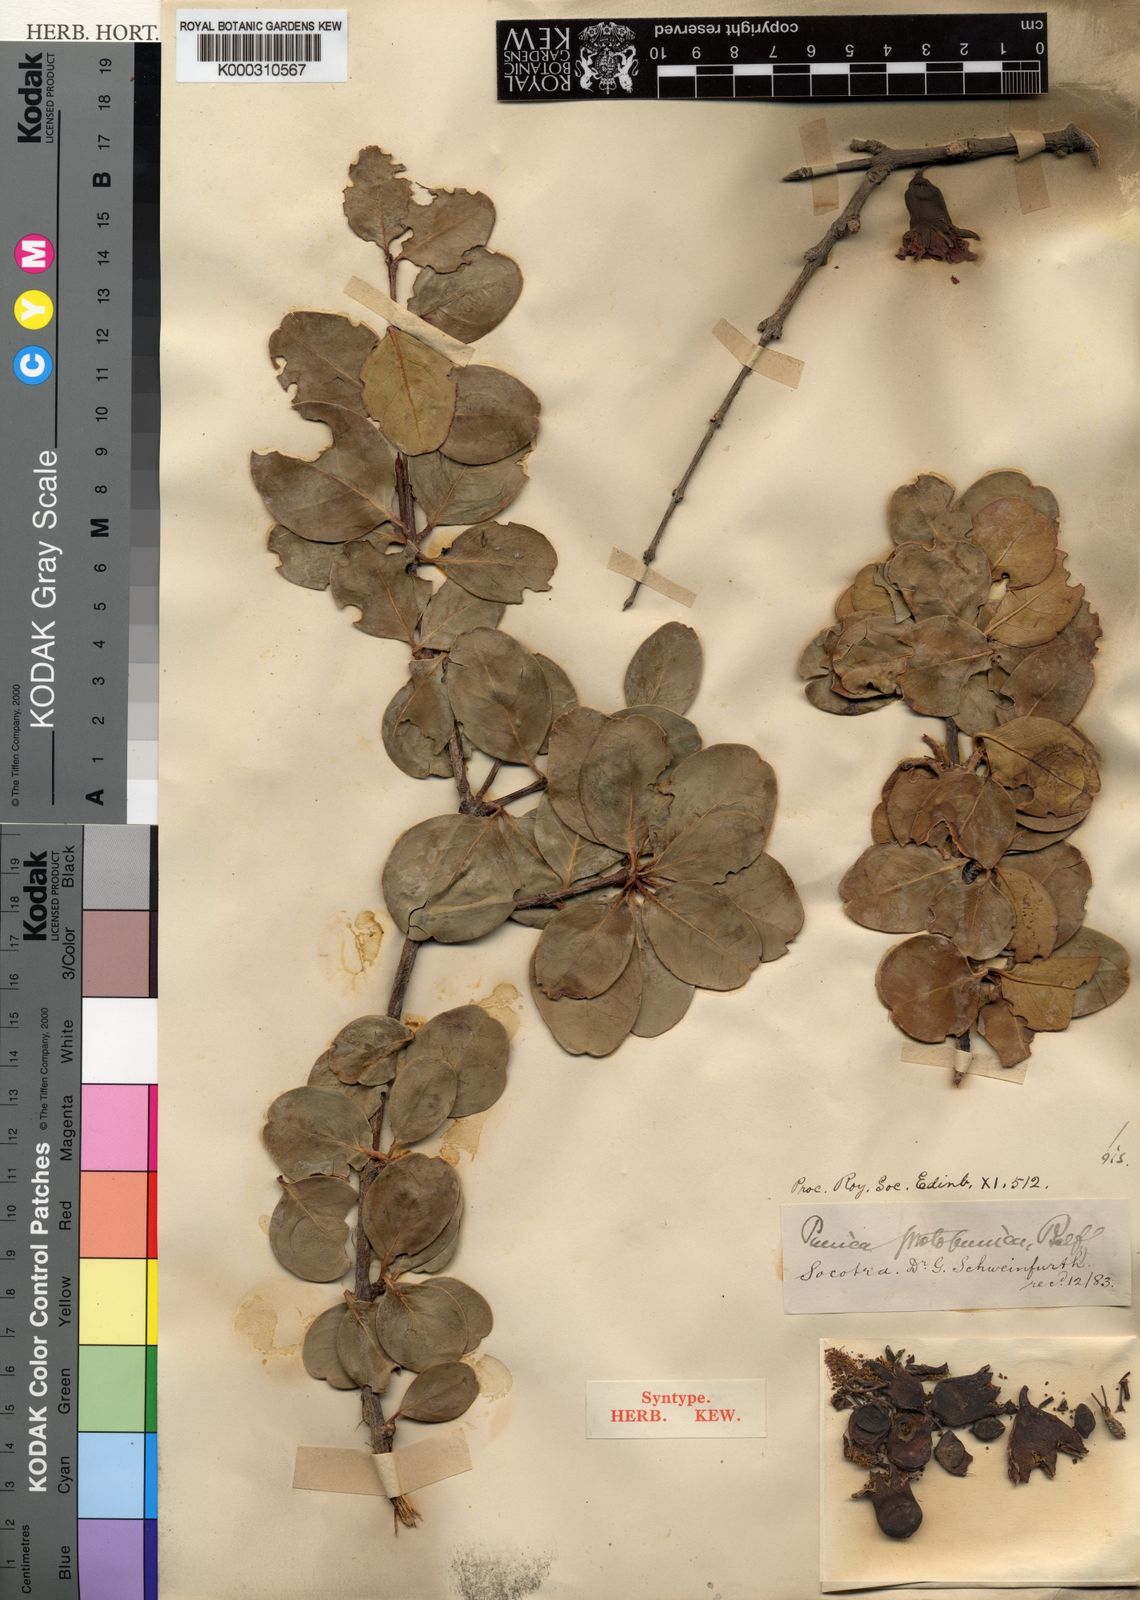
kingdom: Plantae
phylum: Tracheophyta
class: Magnoliopsida
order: Myrtales
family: Lythraceae
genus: Punica
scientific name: Punica protopunica
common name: Pomegranate tree
